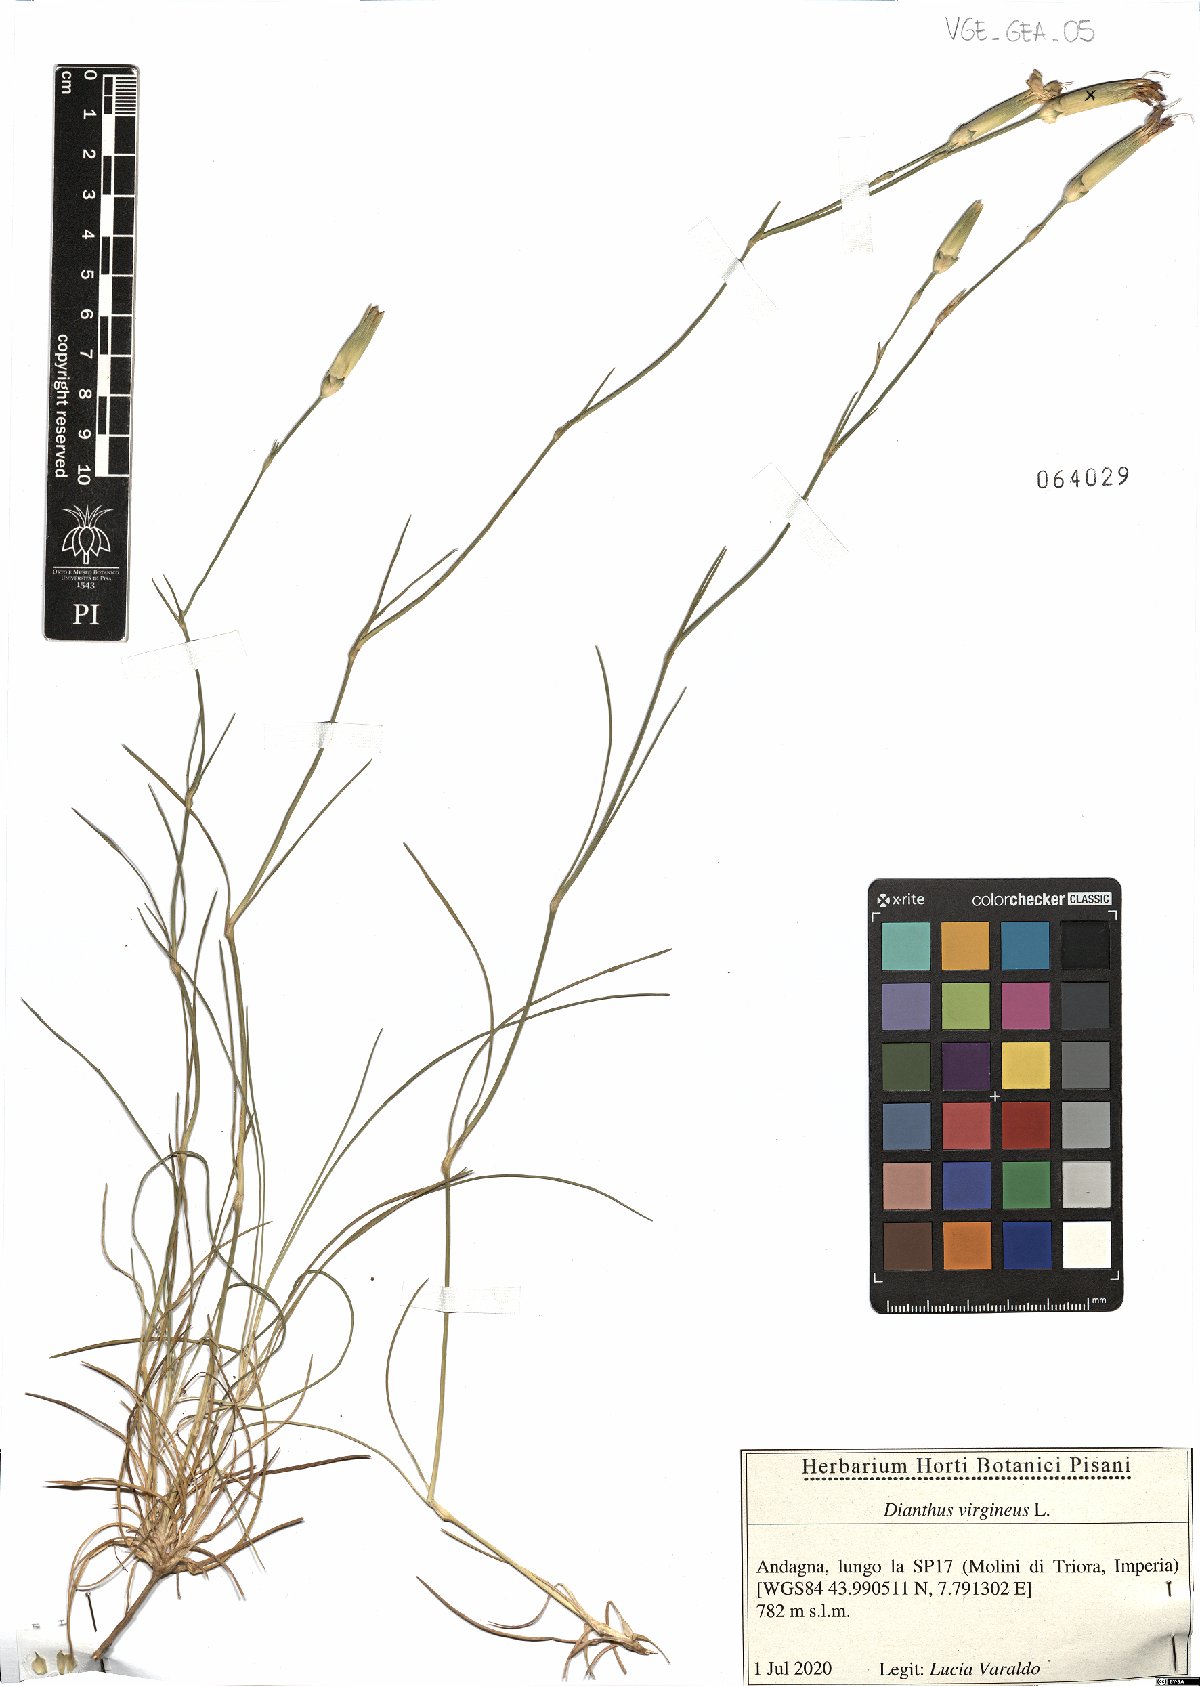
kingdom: Plantae
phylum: Tracheophyta
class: Magnoliopsida
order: Caryophyllales
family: Caryophyllaceae
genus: Dianthus
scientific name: Dianthus virgineus
